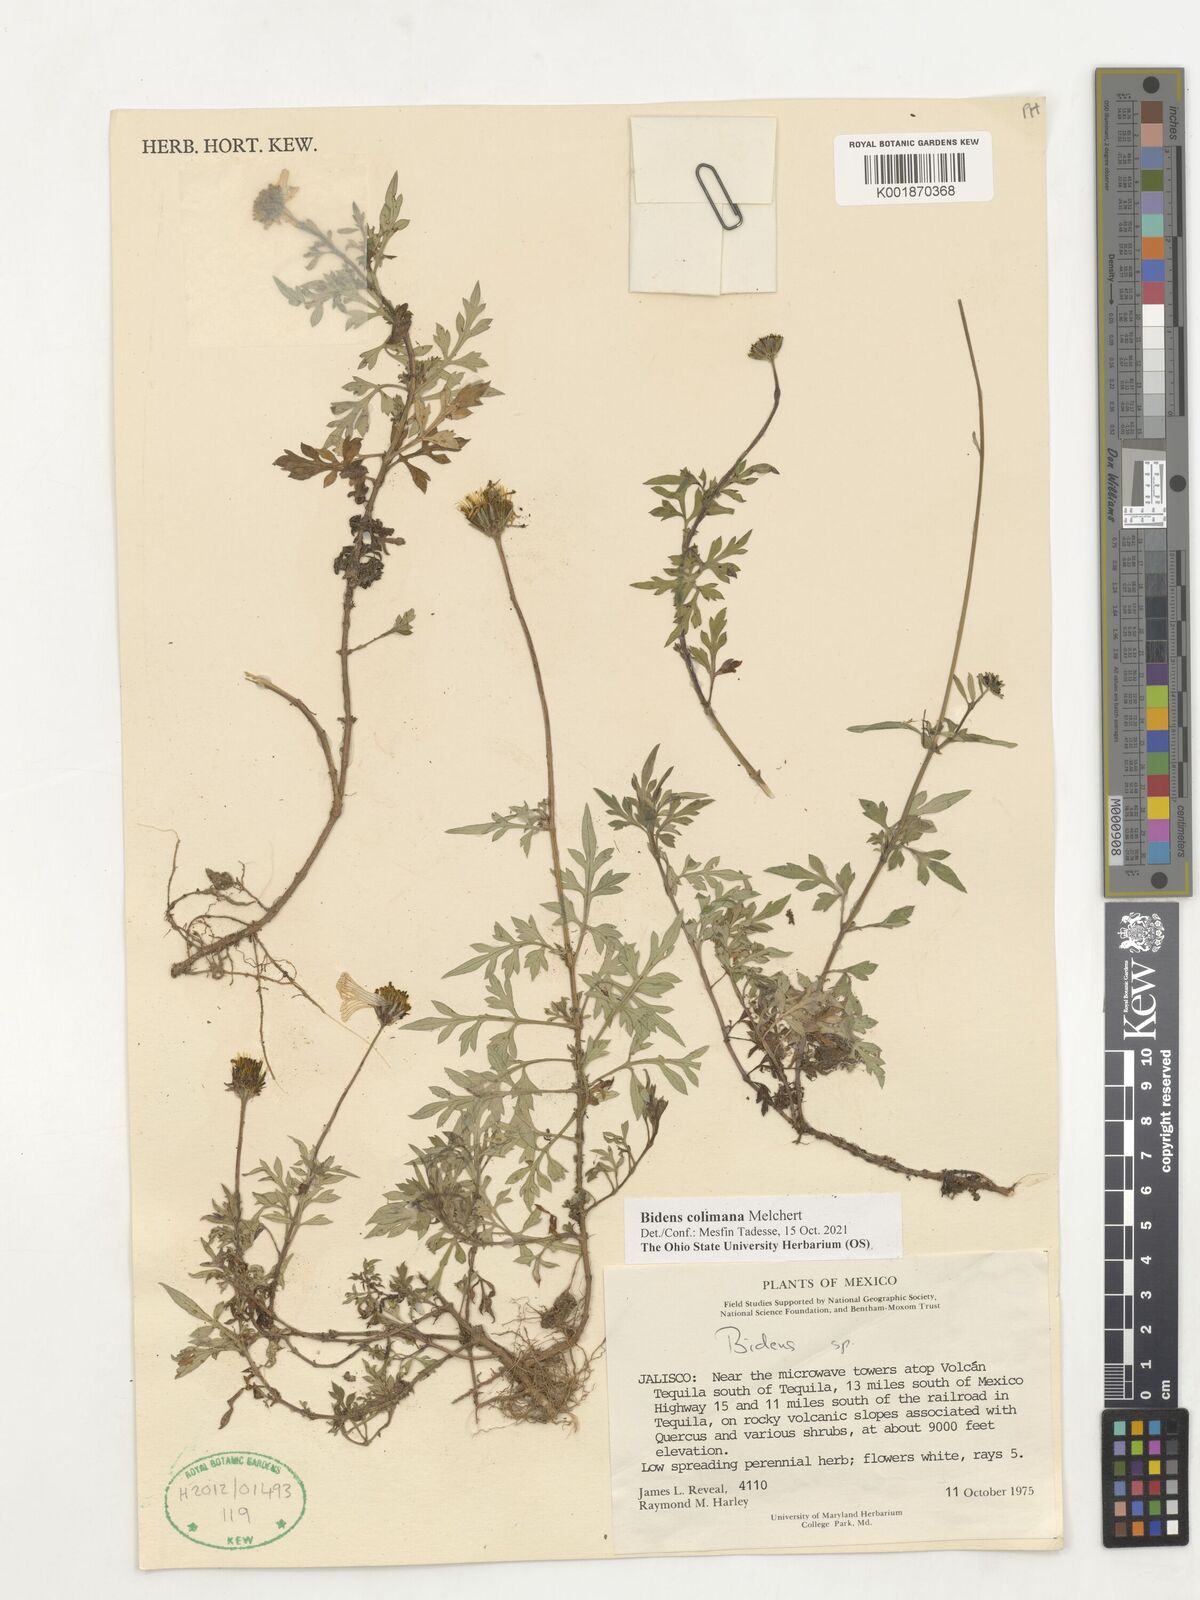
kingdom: Plantae
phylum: Tracheophyta
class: Magnoliopsida
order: Asterales
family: Asteraceae
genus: Bidens
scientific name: Bidens colimana
